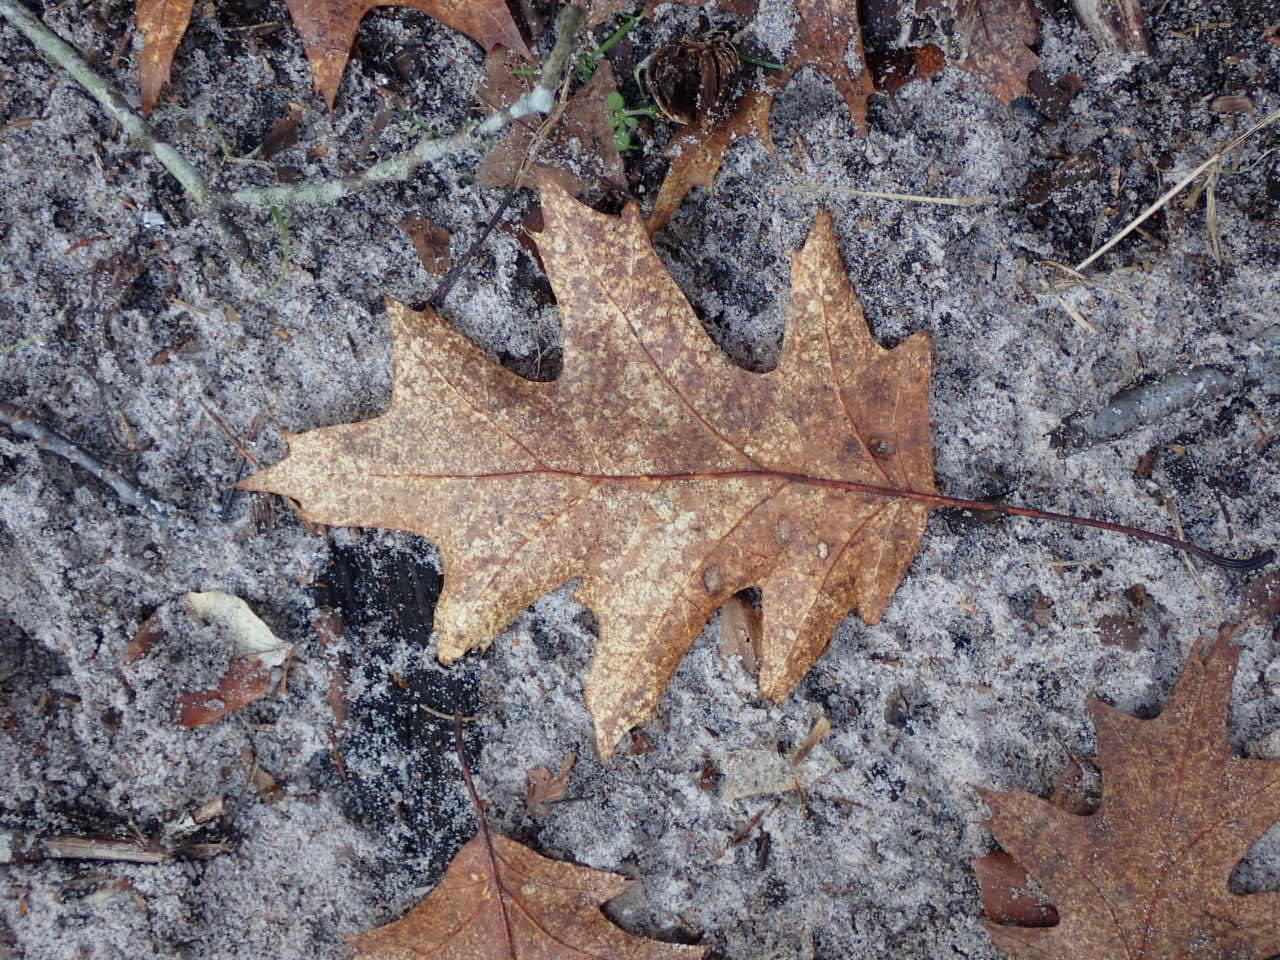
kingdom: Plantae
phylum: Tracheophyta
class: Magnoliopsida
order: Fagales
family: Fagaceae
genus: Quercus
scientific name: Quercus rubra
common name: Rød-eg
